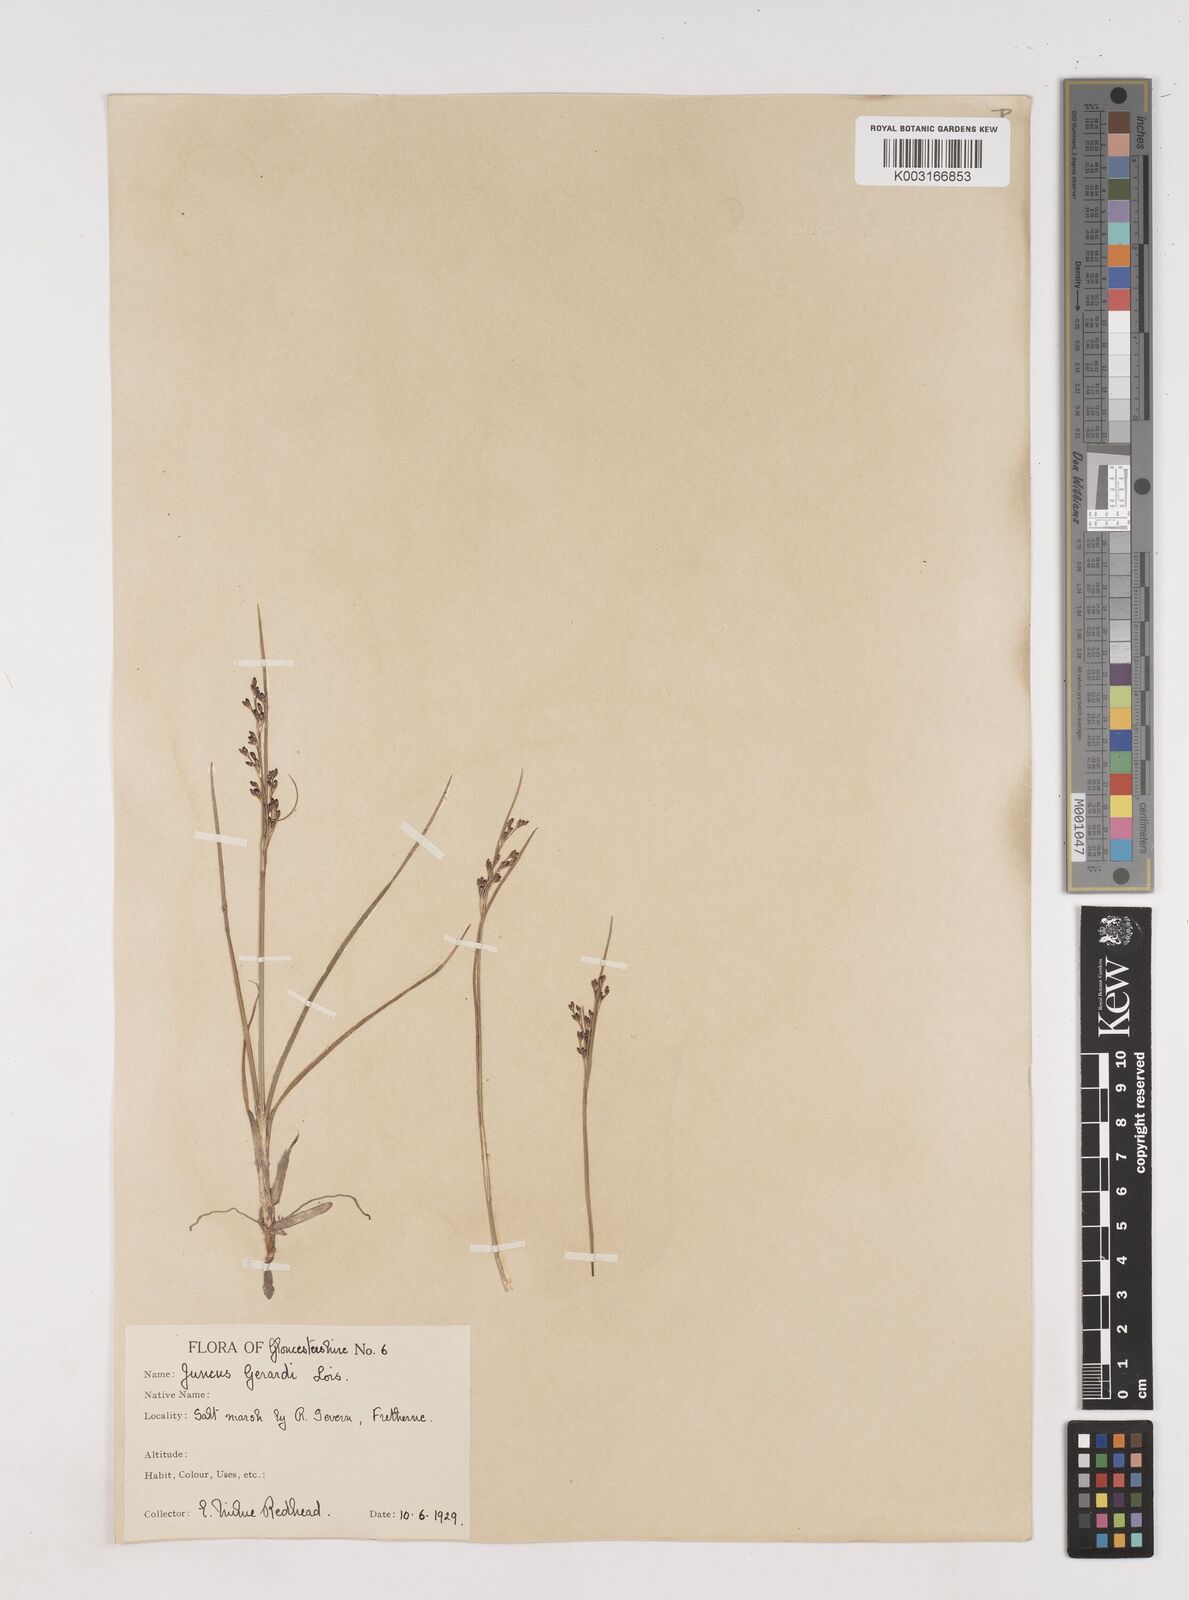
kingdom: Plantae
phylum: Tracheophyta
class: Liliopsida
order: Poales
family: Juncaceae
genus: Juncus
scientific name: Juncus gerardi
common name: Saltmarsh rush
